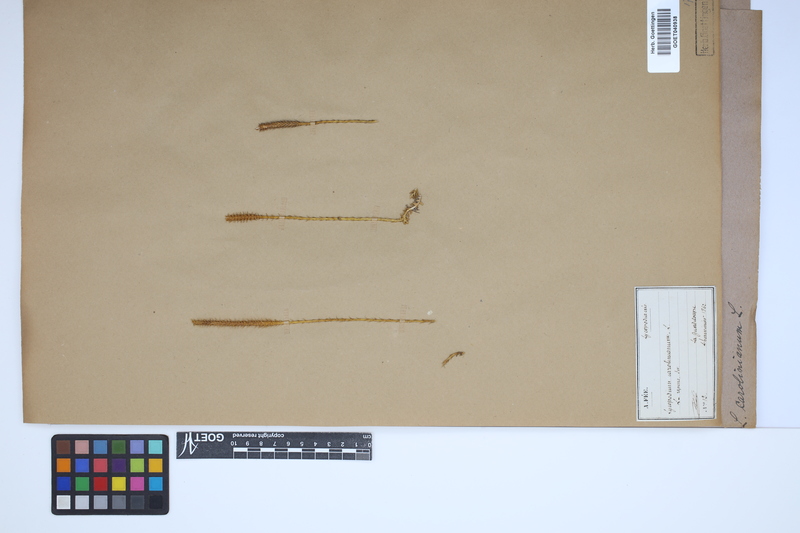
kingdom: Plantae
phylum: Tracheophyta
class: Lycopodiopsida
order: Lycopodiales
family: Lycopodiaceae
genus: Brownseya
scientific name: Brownseya serpentina
